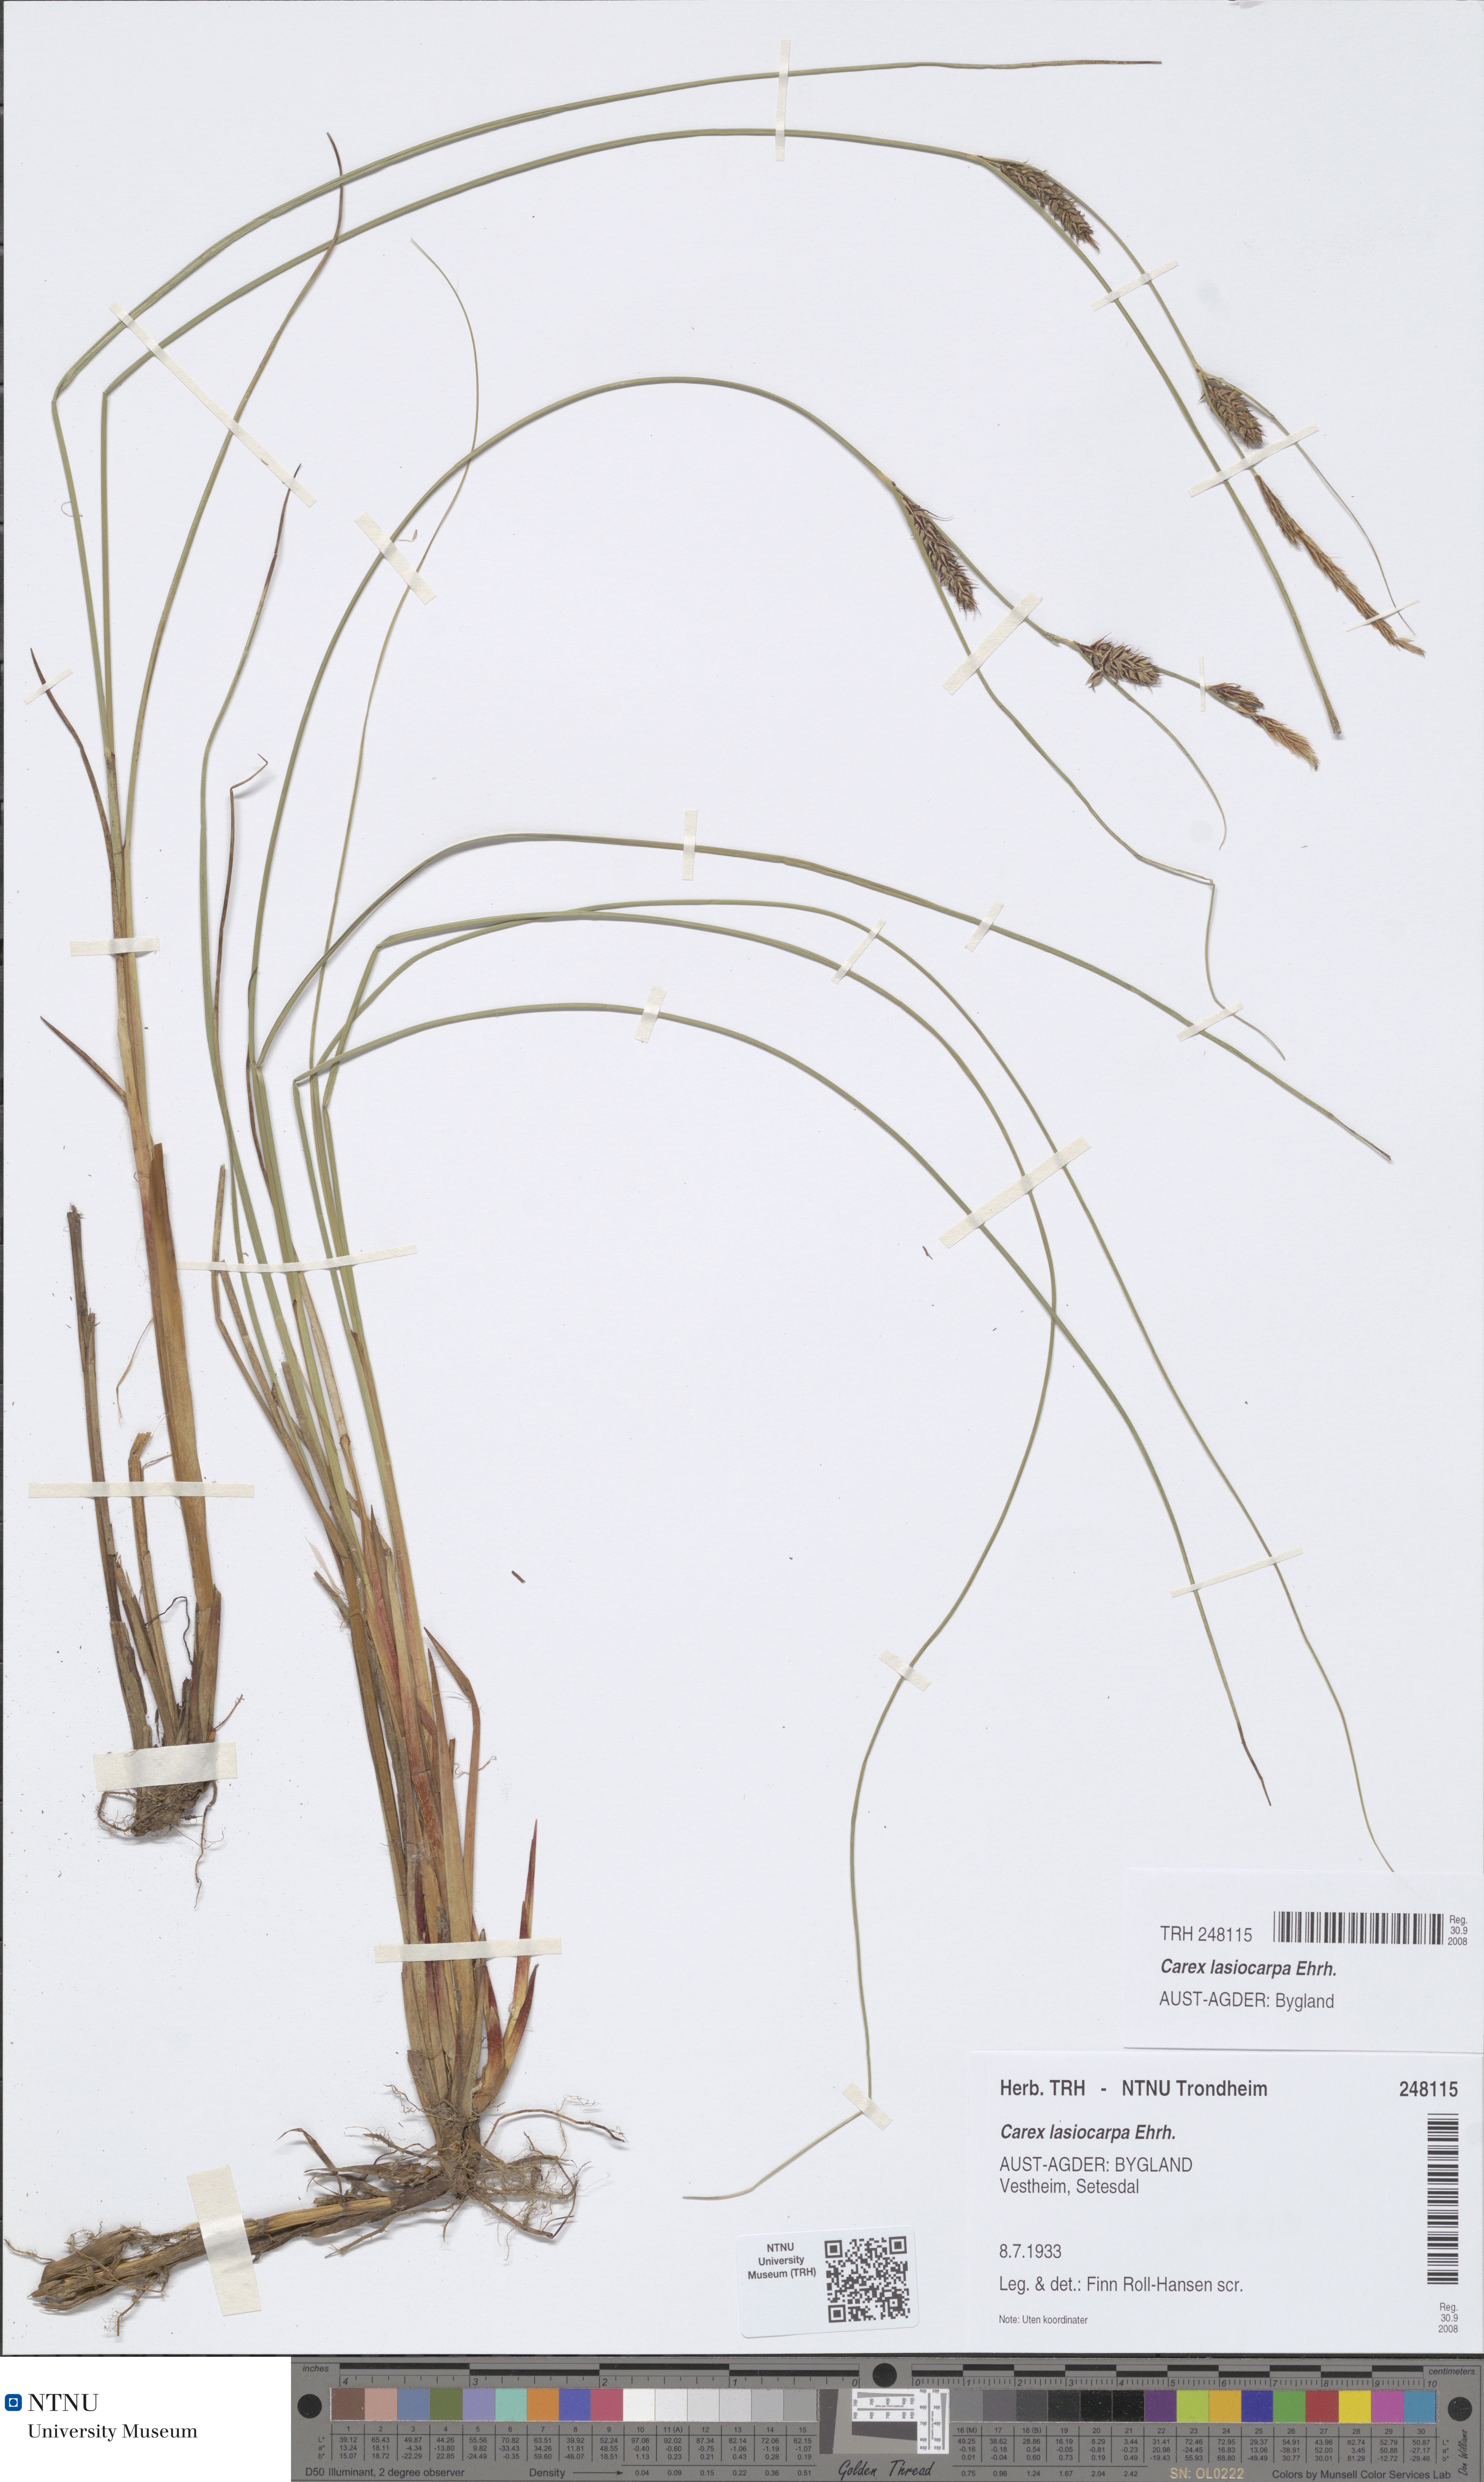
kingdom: Plantae
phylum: Tracheophyta
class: Liliopsida
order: Poales
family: Cyperaceae
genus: Carex
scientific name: Carex lasiocarpa
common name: Slender sedge
